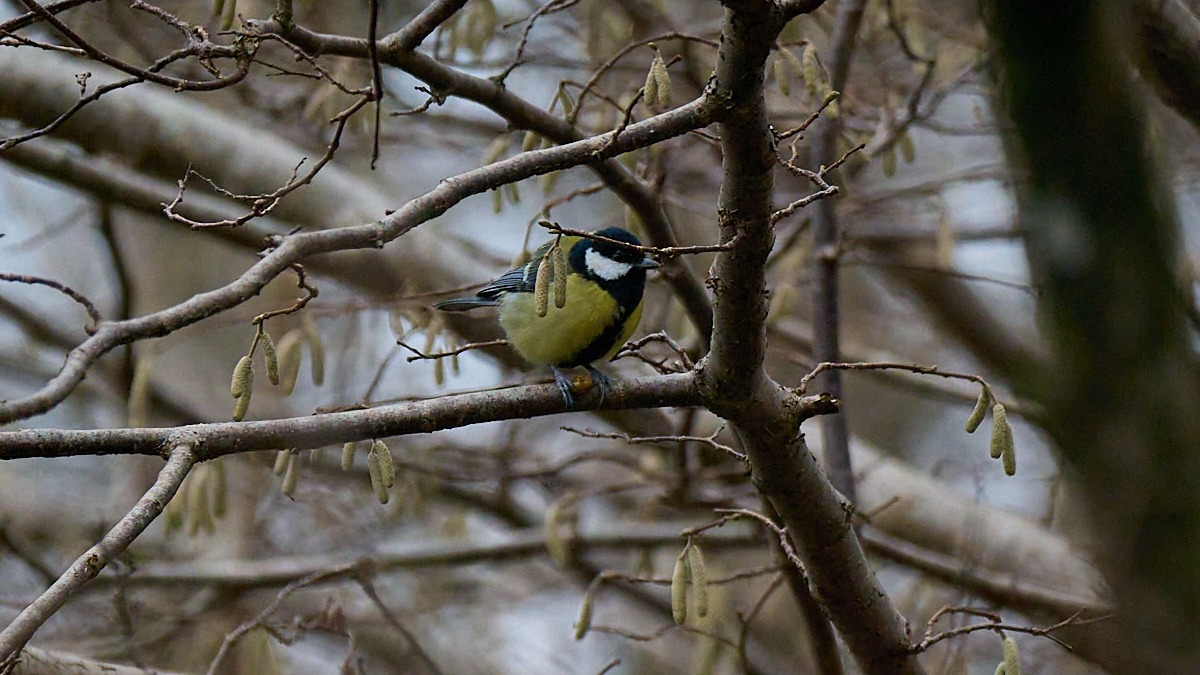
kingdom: Animalia
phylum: Chordata
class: Aves
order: Passeriformes
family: Paridae
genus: Parus
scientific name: Parus major
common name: Musvit
